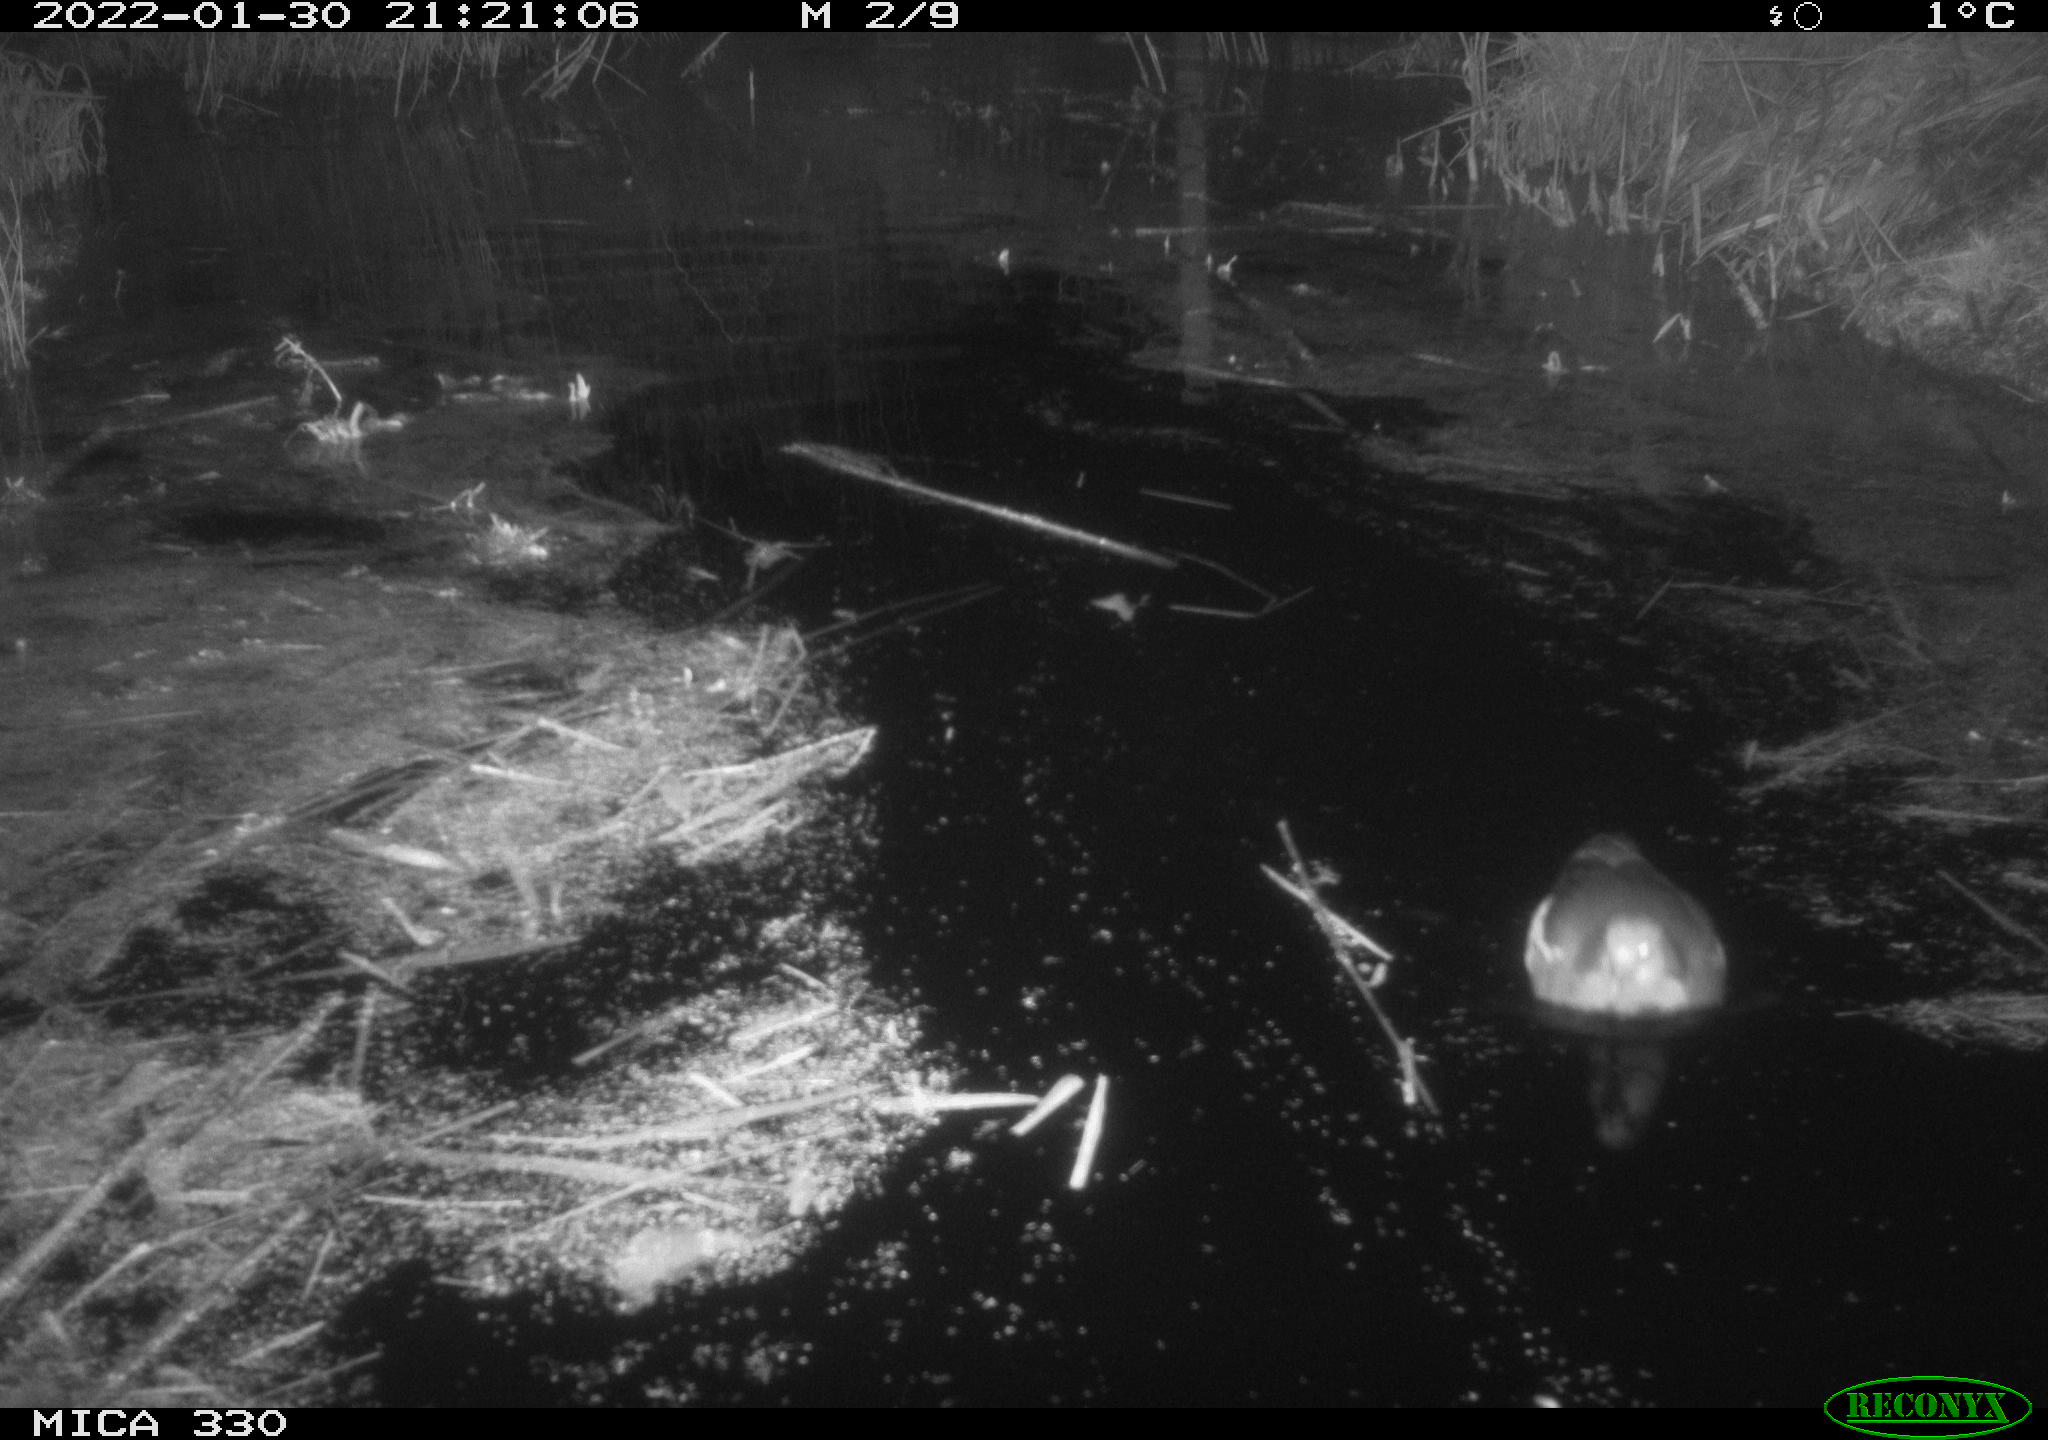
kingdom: Animalia
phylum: Chordata
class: Aves
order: Gruiformes
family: Rallidae
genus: Gallinula
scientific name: Gallinula chloropus
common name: Common moorhen
